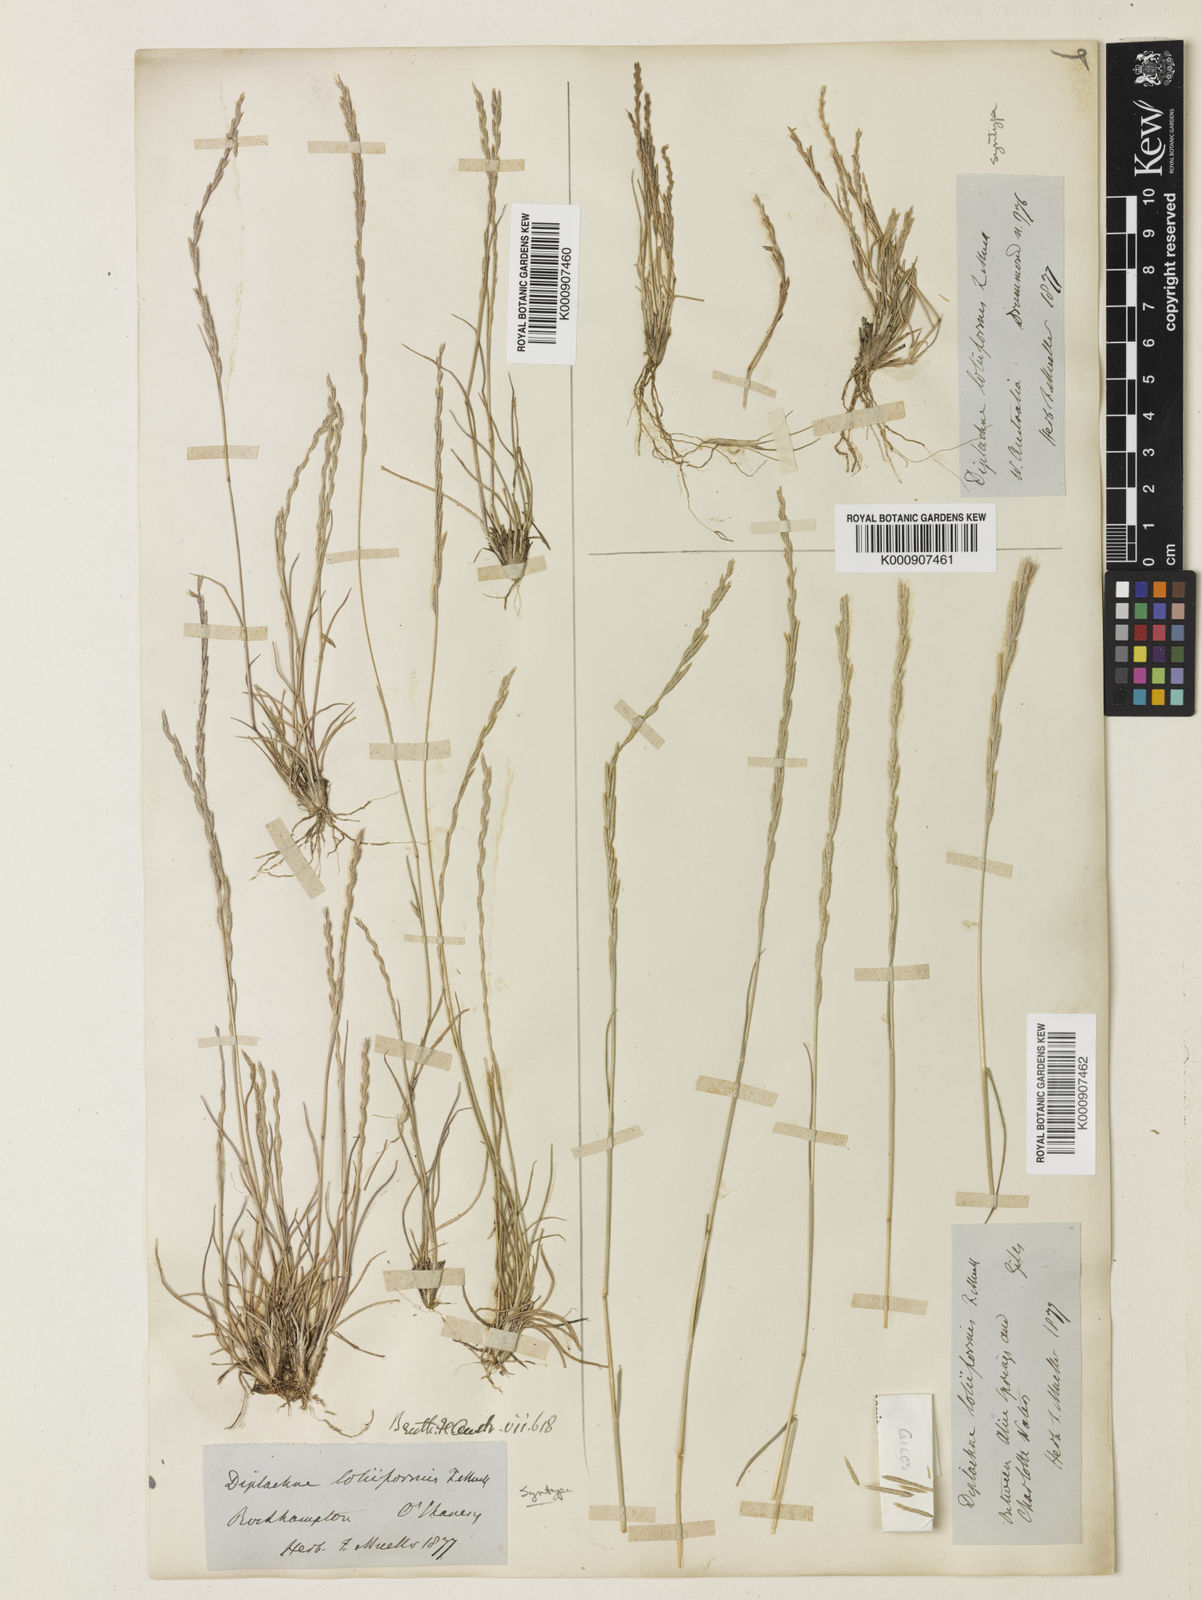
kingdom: Plantae
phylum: Tracheophyta
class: Liliopsida
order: Poales
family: Poaceae
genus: Tripogonella
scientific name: Tripogonella loliiformis
